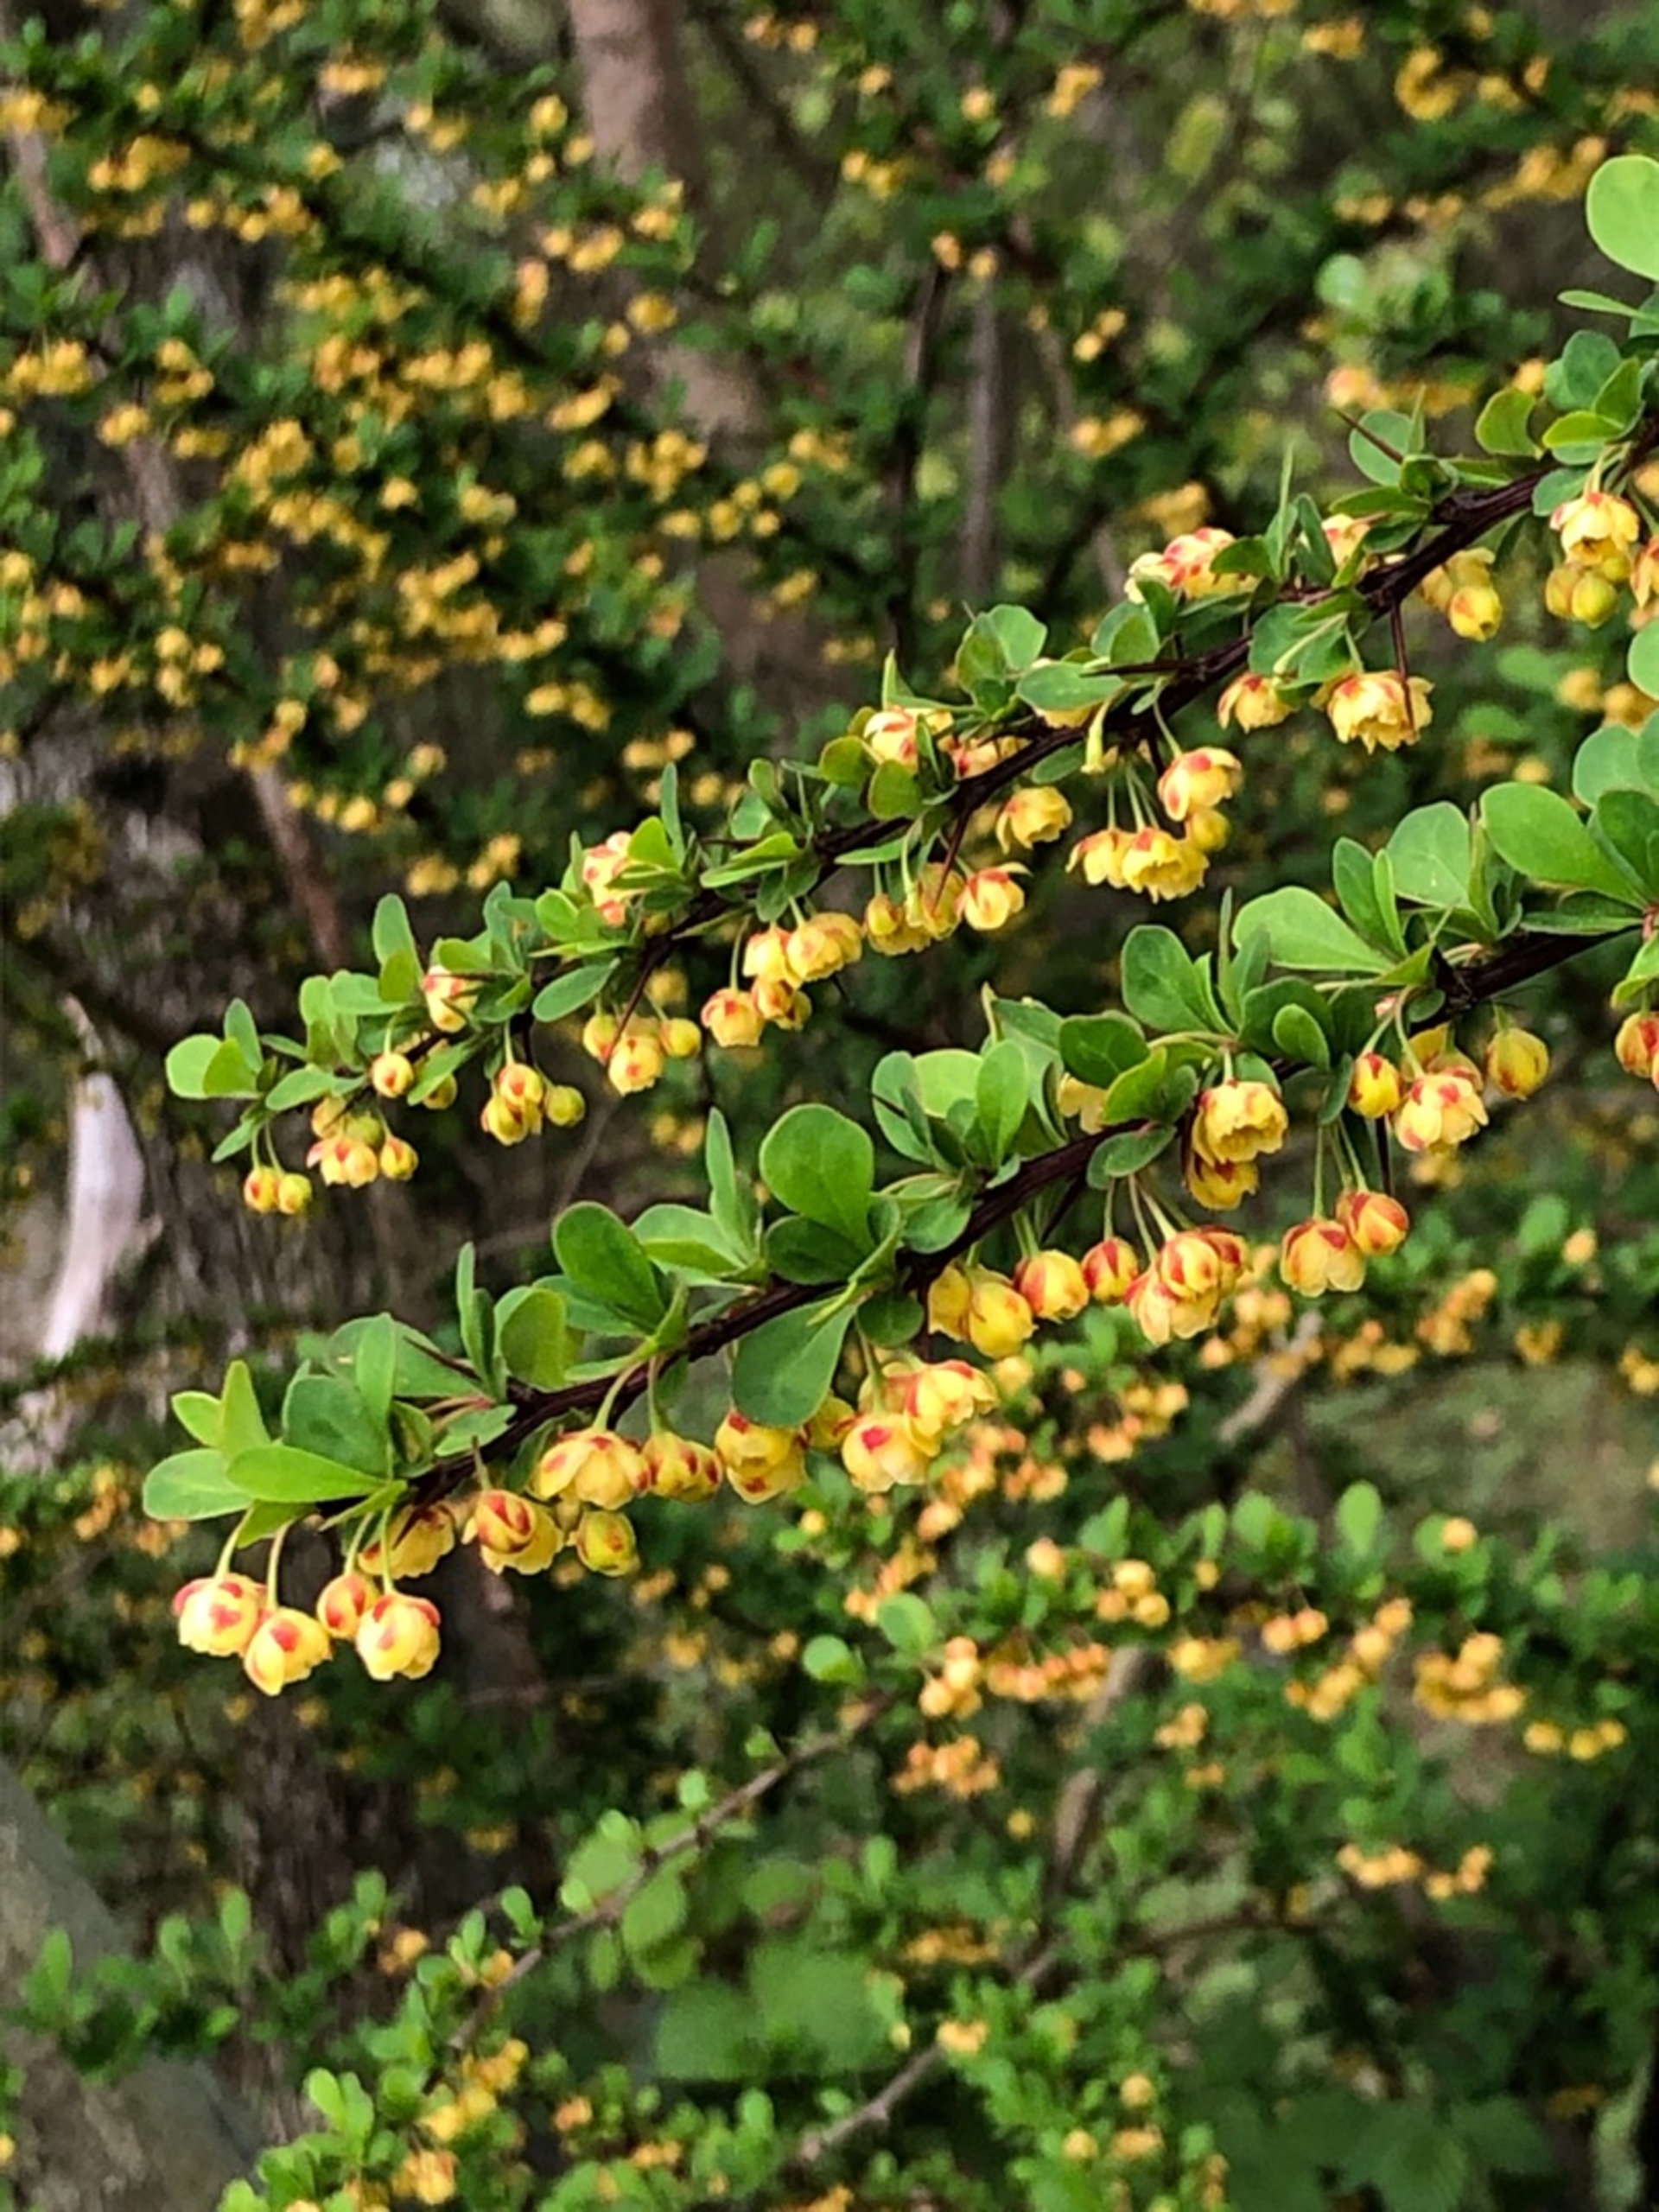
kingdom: Plantae
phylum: Tracheophyta
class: Magnoliopsida
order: Ranunculales
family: Berberidaceae
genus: Berberis
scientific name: Berberis thunbergii
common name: Hæk-berberis
